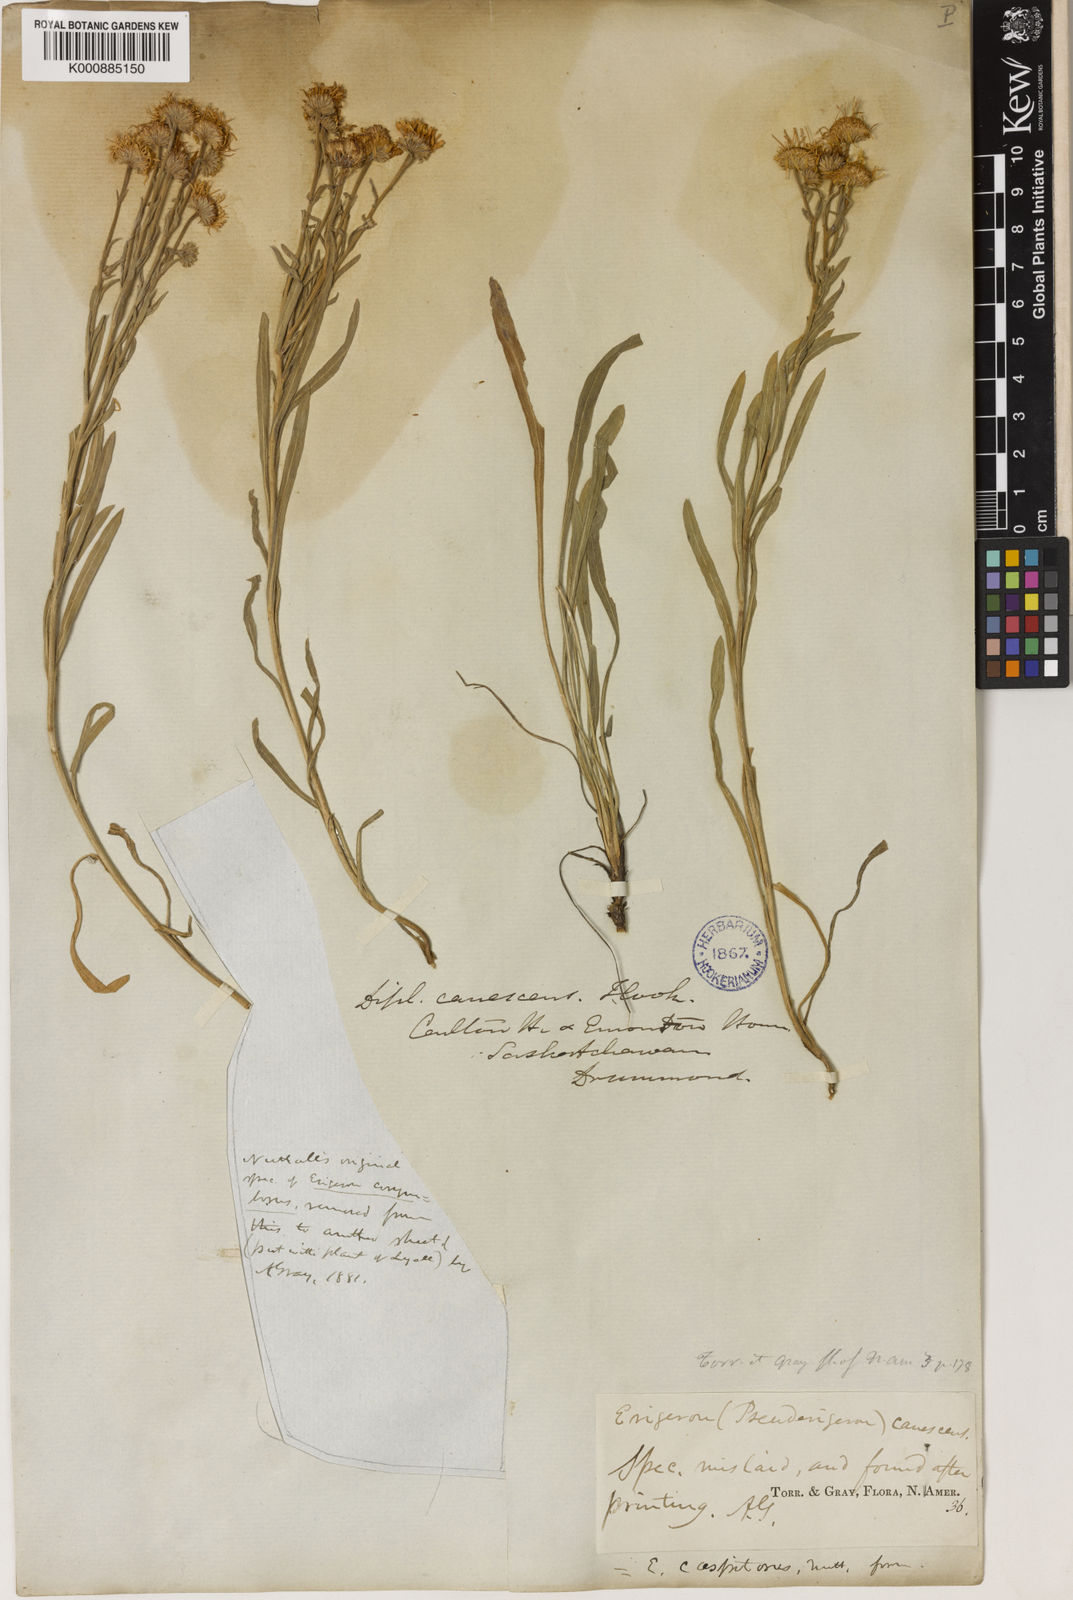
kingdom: Plantae
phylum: Tracheophyta
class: Magnoliopsida
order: Asterales
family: Asteraceae
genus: Erigeron
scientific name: Erigeron caespitosus
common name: Tufted fleabane
